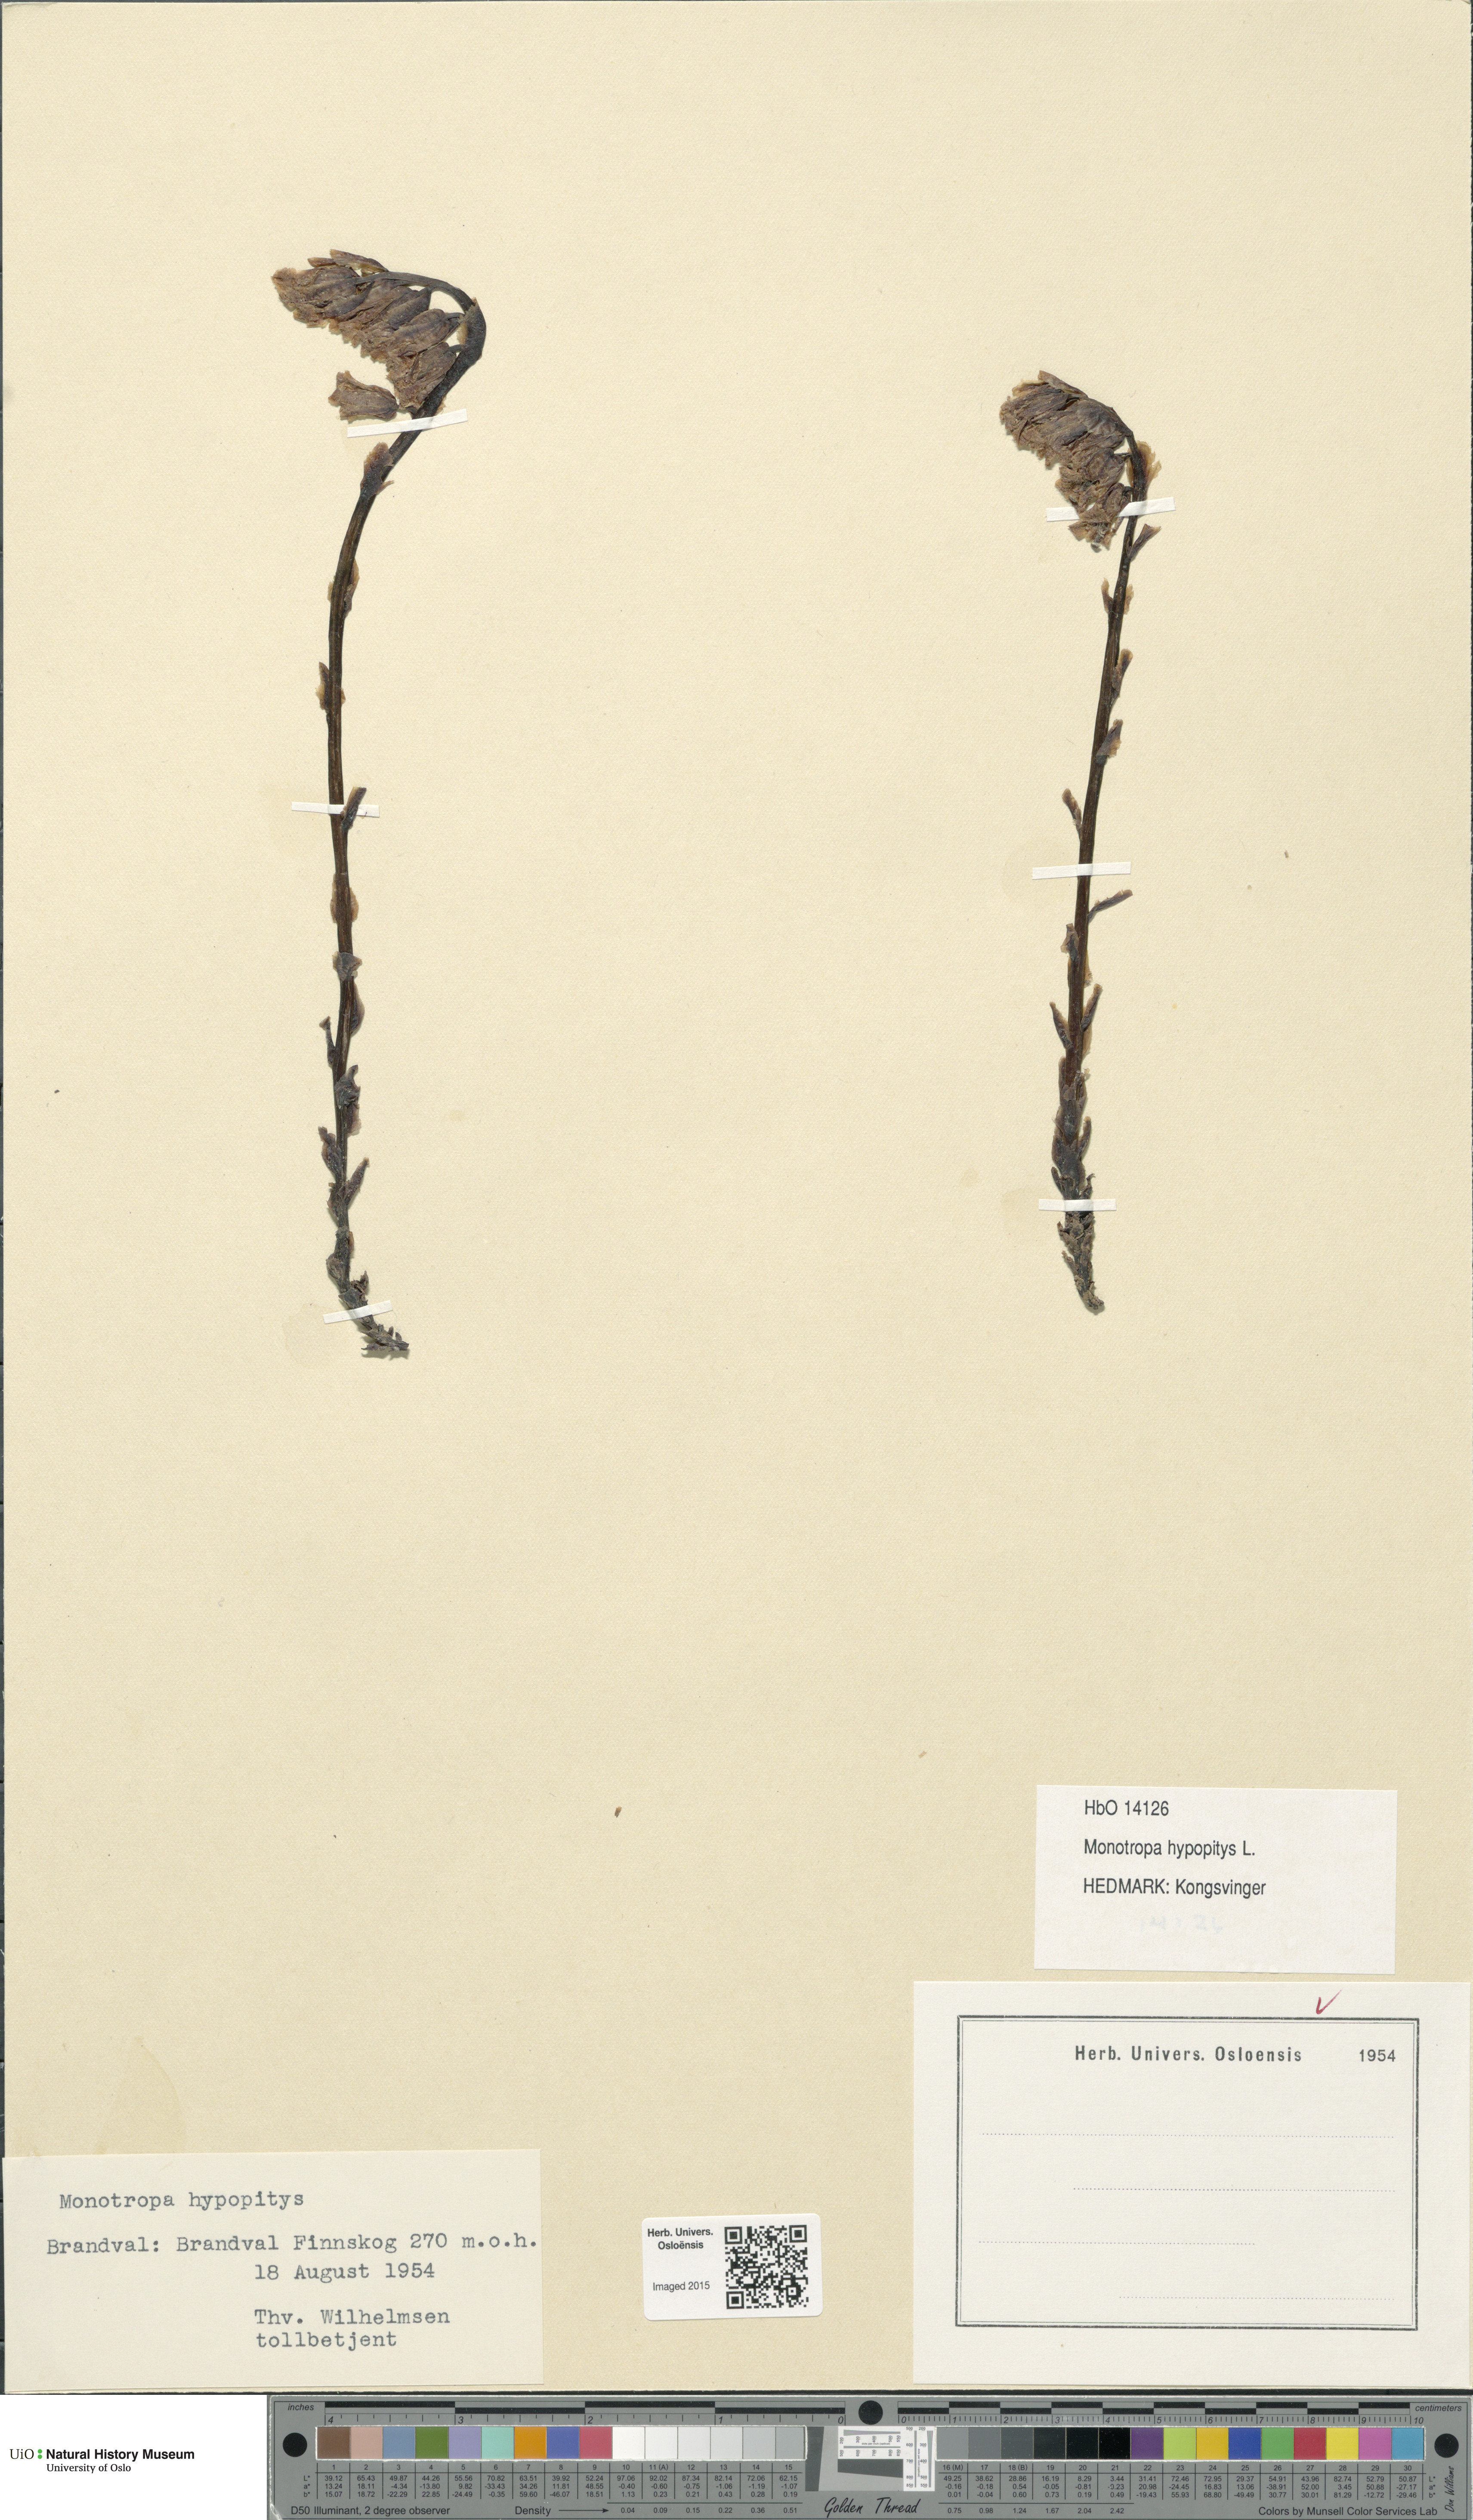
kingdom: Plantae
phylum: Tracheophyta
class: Magnoliopsida
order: Ericales
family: Ericaceae
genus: Hypopitys
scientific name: Hypopitys monotropa
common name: Yellow bird's-nest
